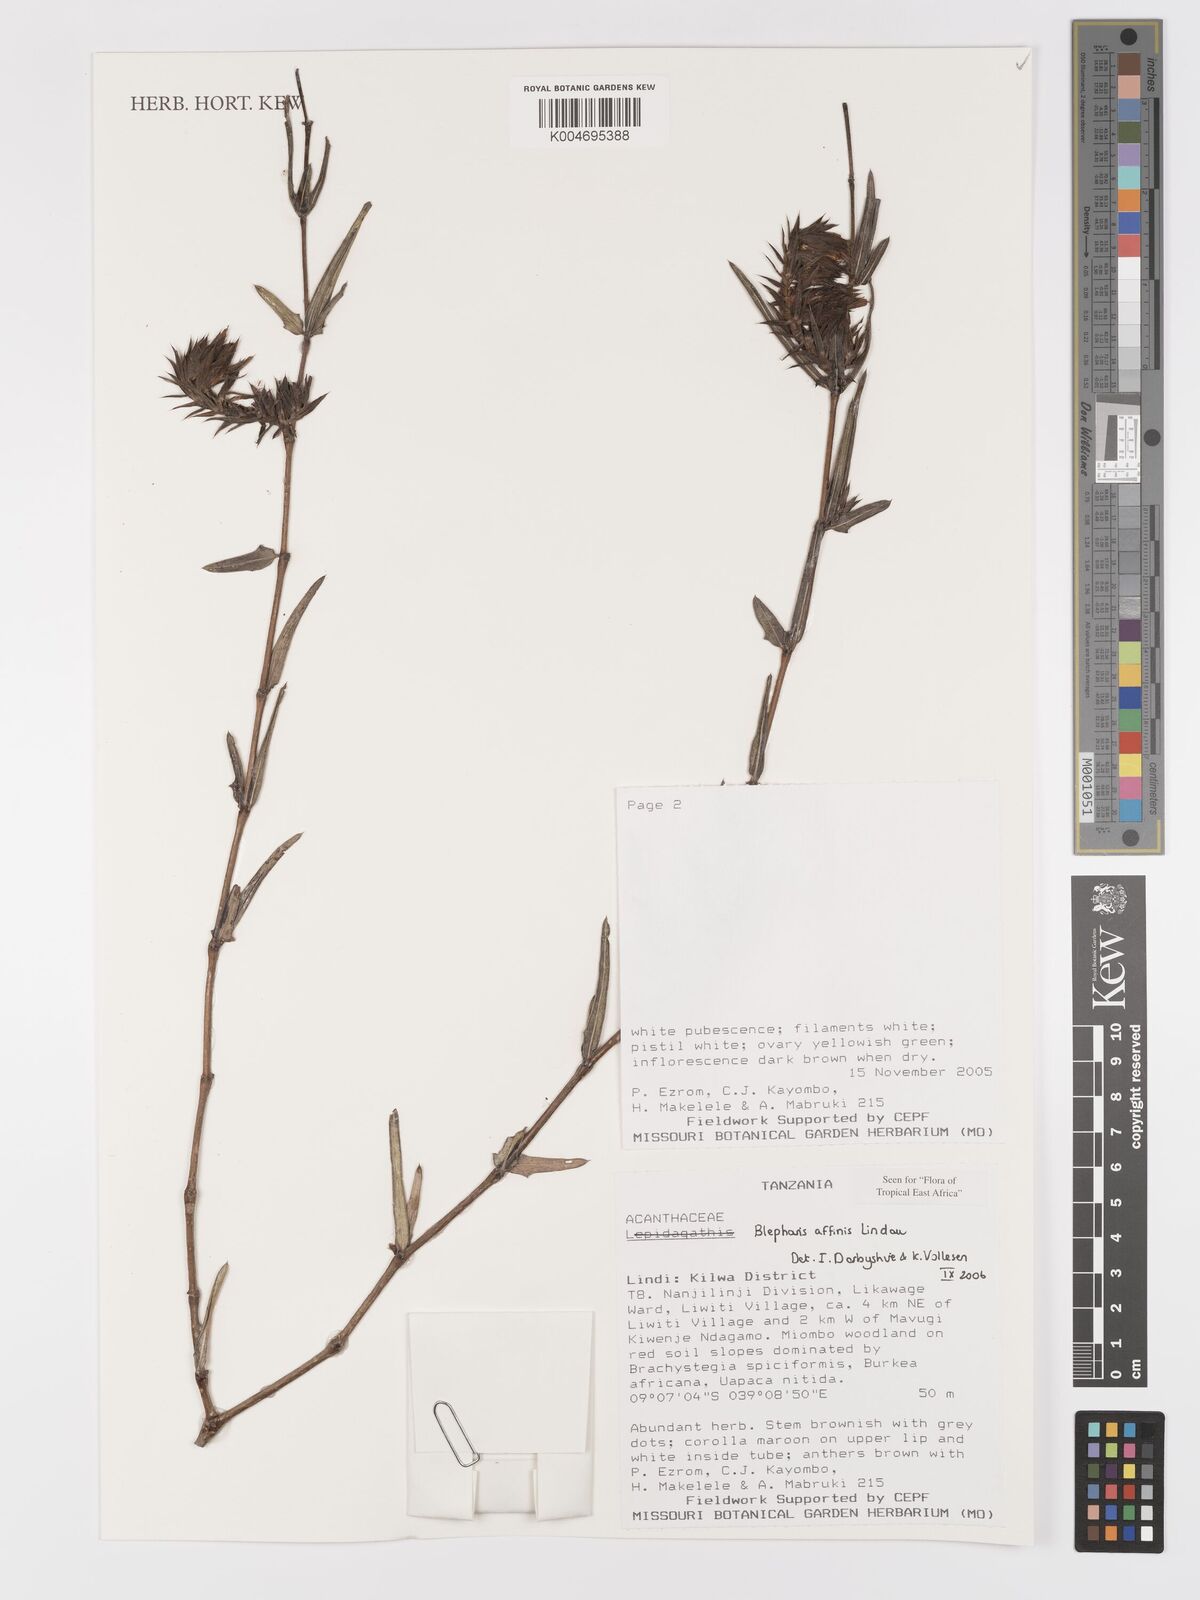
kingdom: Plantae
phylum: Tracheophyta
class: Magnoliopsida
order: Lamiales
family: Acanthaceae
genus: Blepharis
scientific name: Blepharis affinis
